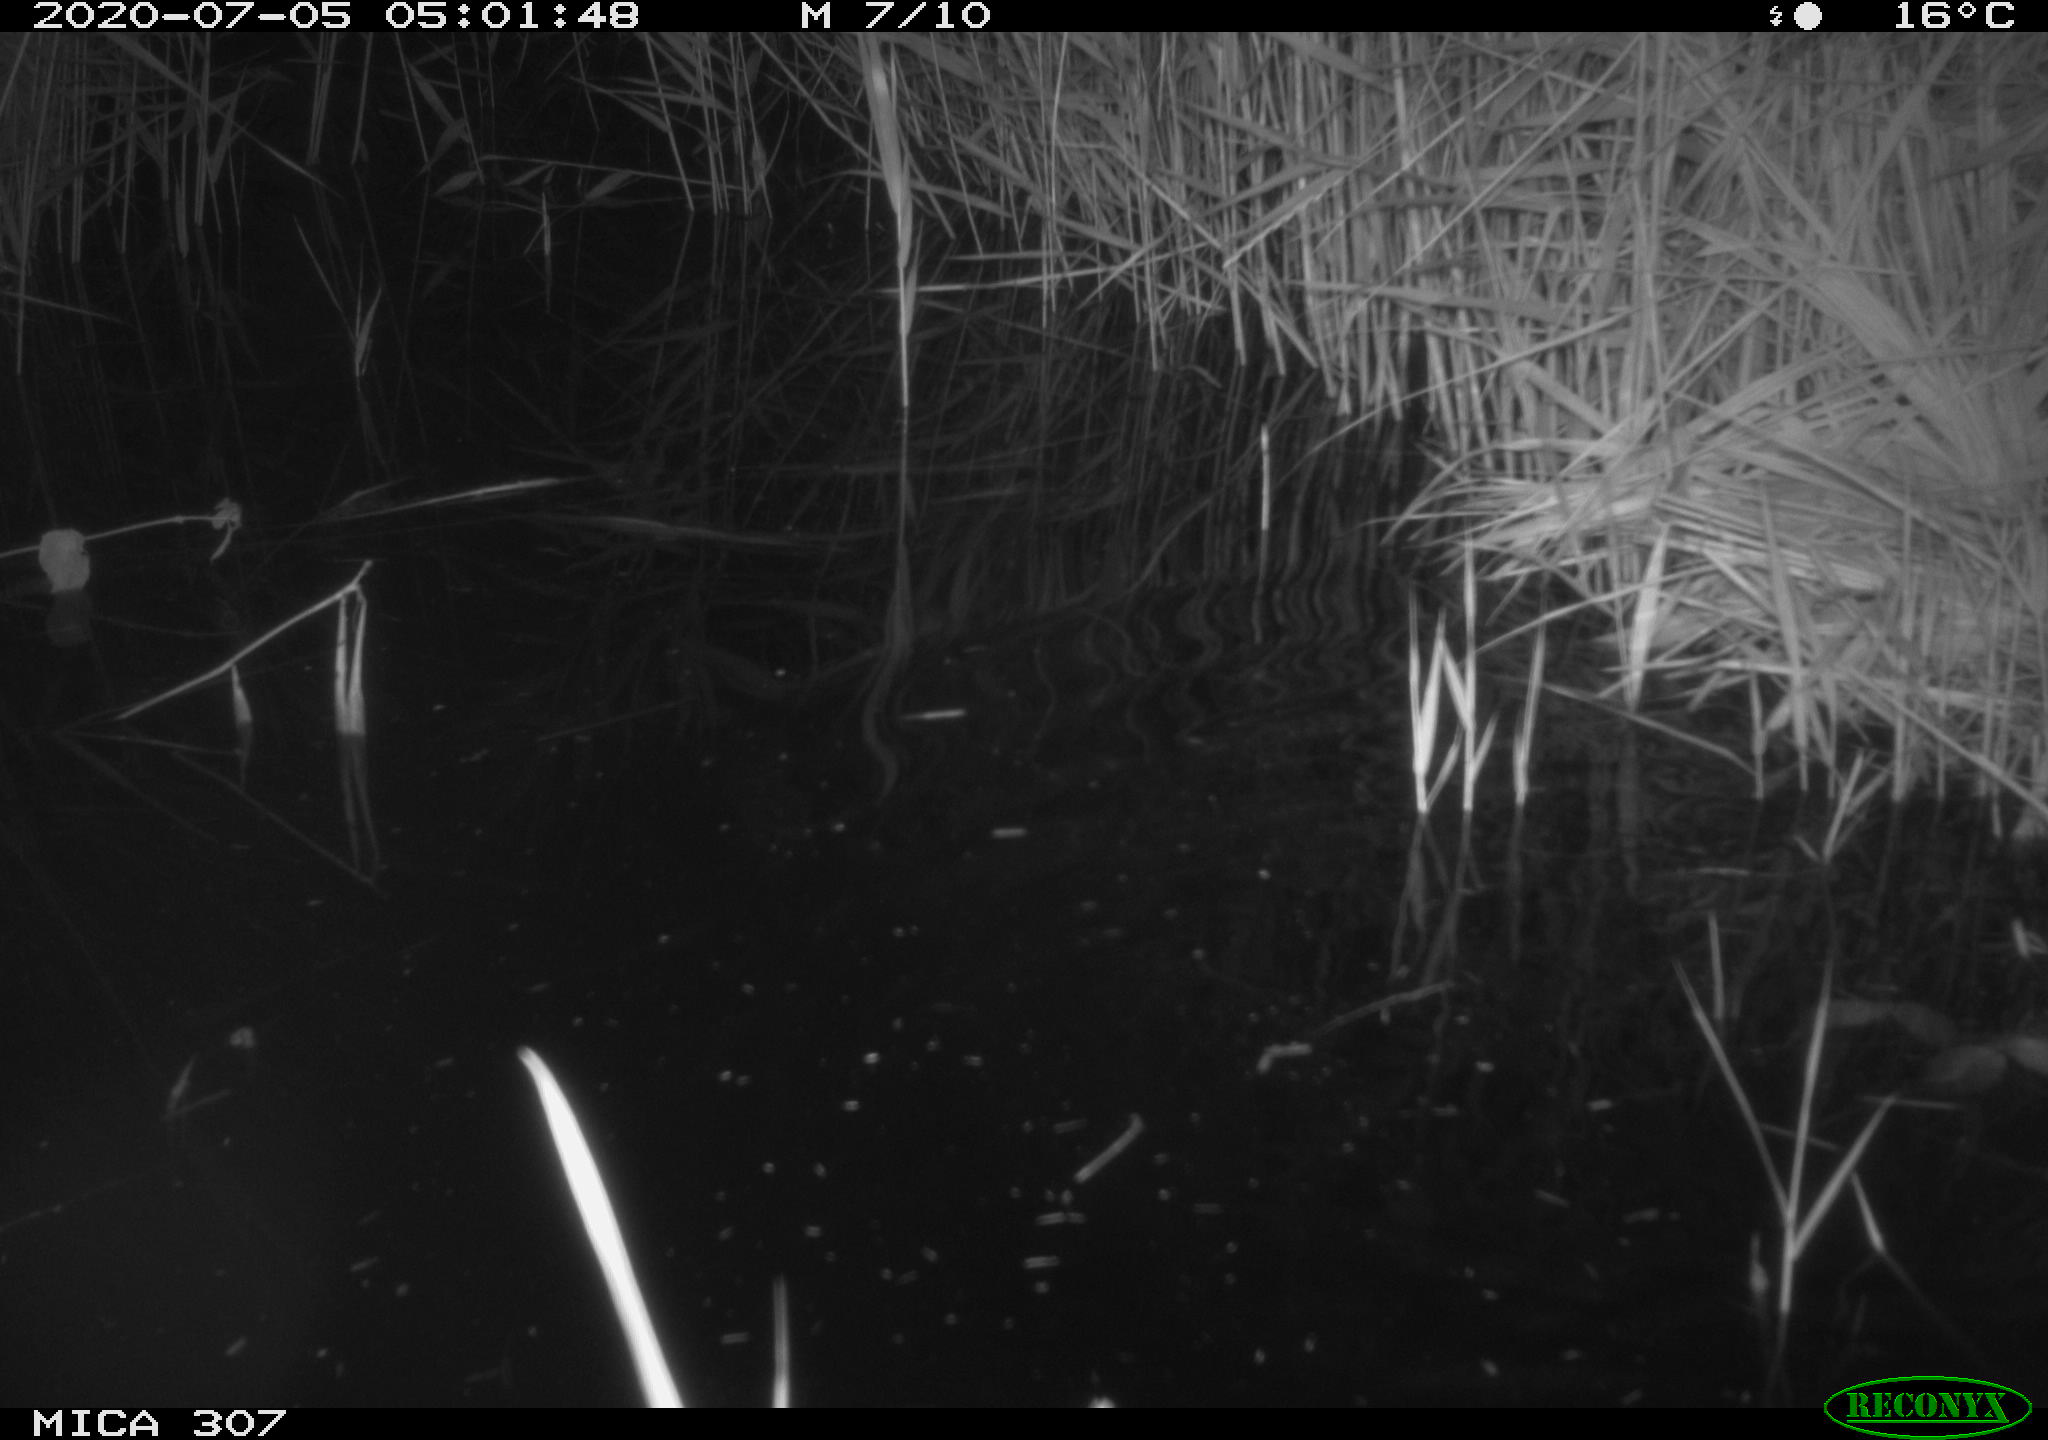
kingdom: Animalia
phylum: Chordata
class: Mammalia
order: Rodentia
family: Muridae
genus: Rattus
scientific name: Rattus norvegicus
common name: Brown rat
